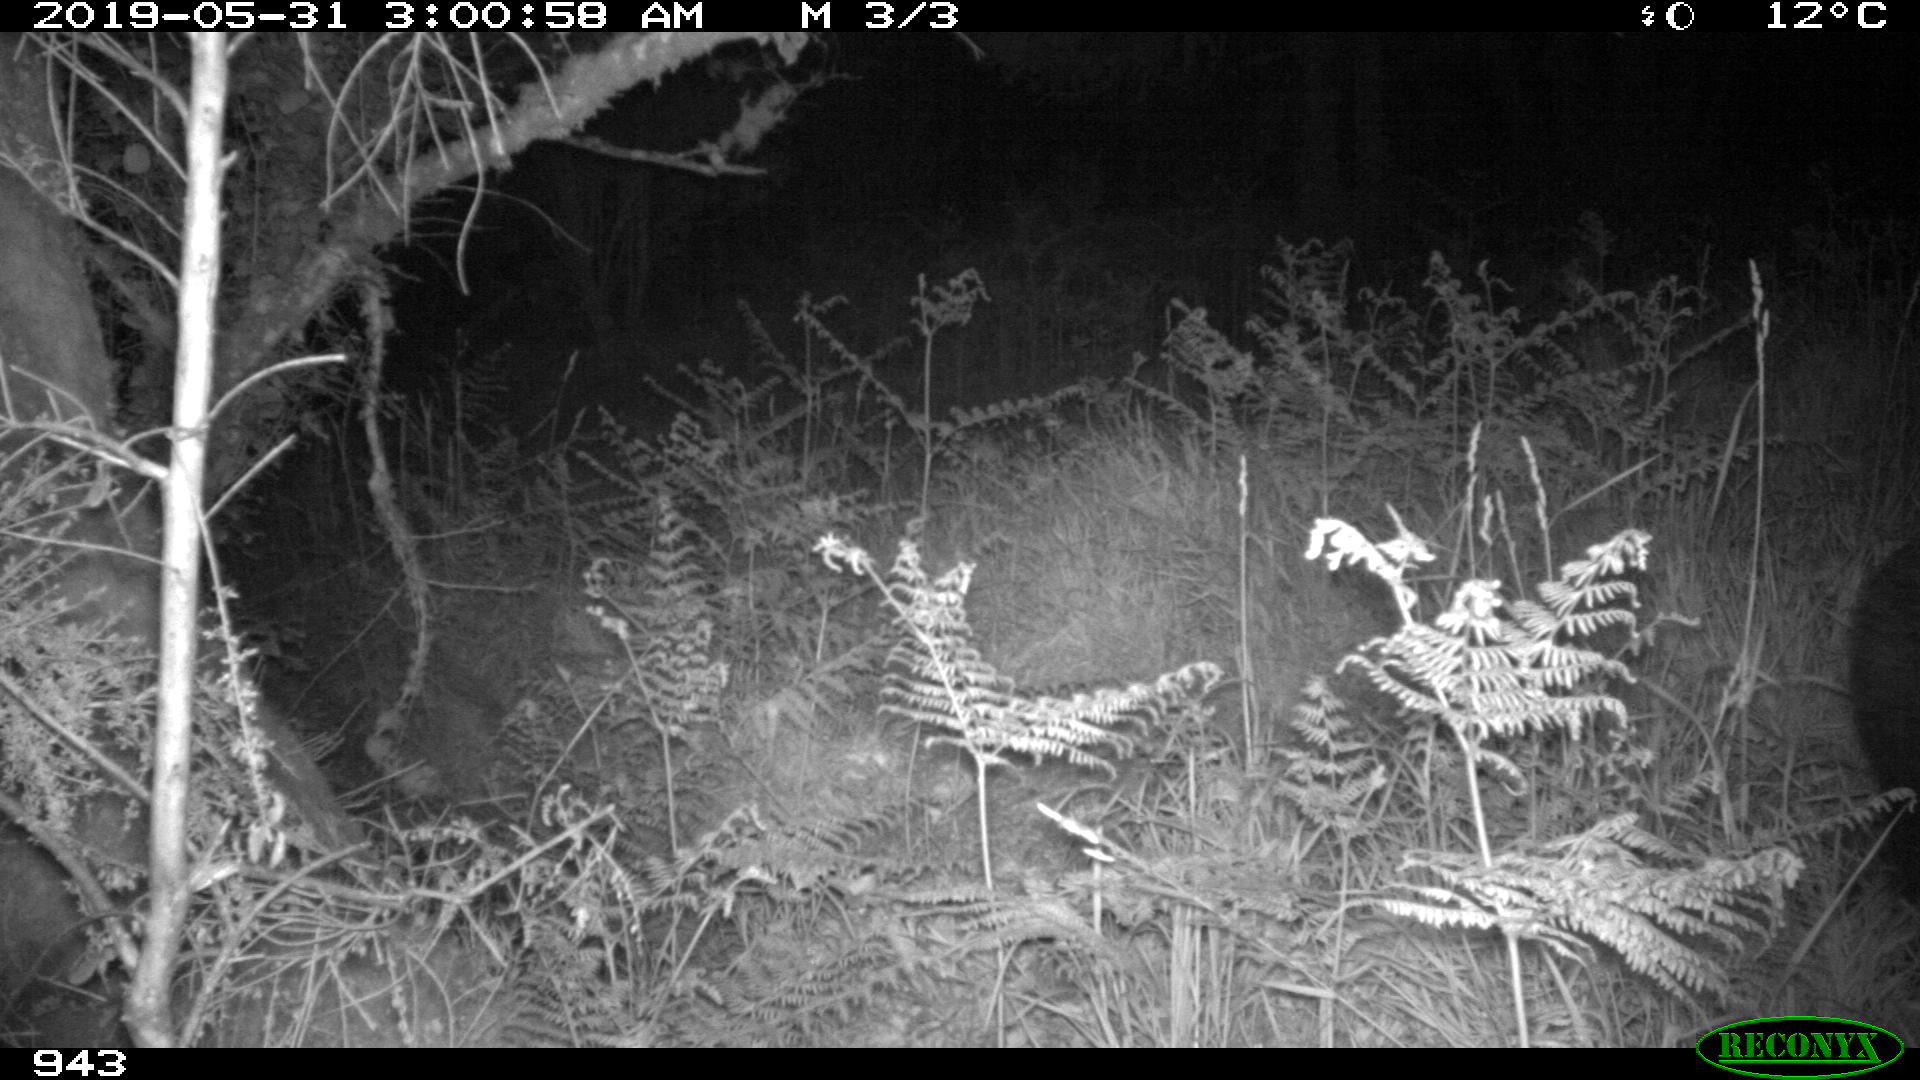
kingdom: Animalia
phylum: Chordata
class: Mammalia
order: Artiodactyla
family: Suidae
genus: Sus
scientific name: Sus scrofa
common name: Wild boar
